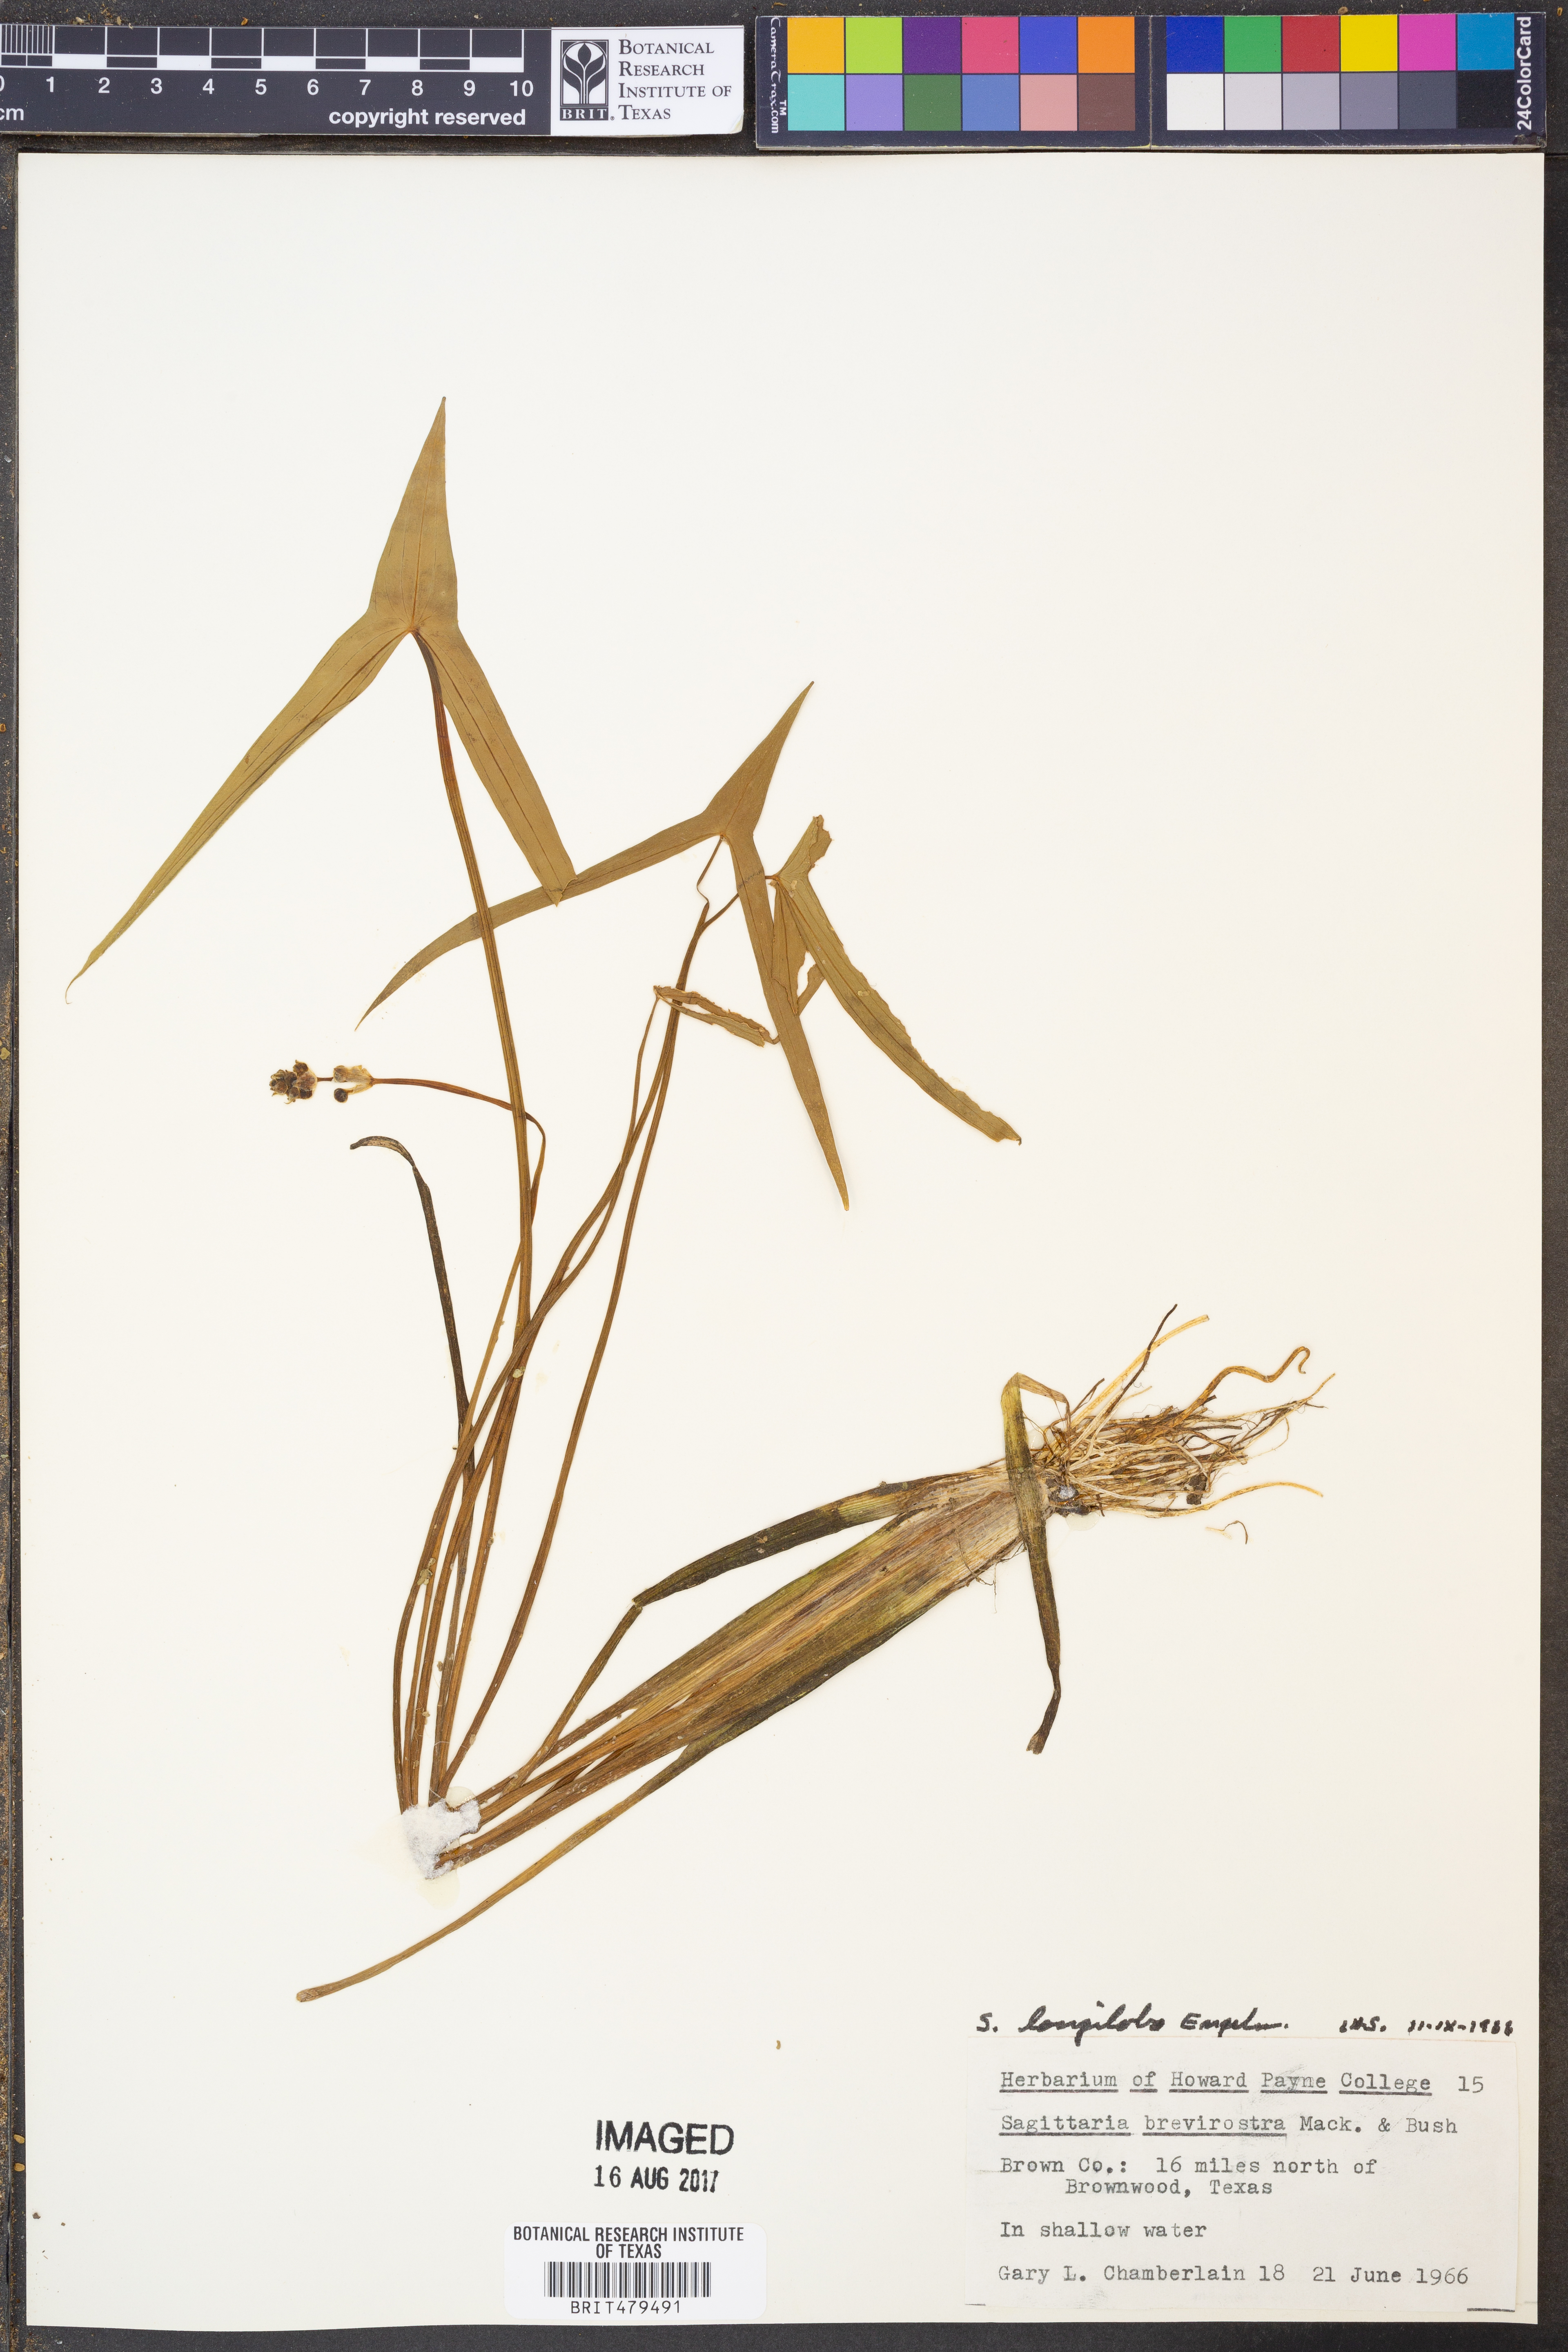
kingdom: Plantae
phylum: Tracheophyta
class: Liliopsida
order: Alismatales
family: Alismataceae
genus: Sagittaria
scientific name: Sagittaria longiloba
